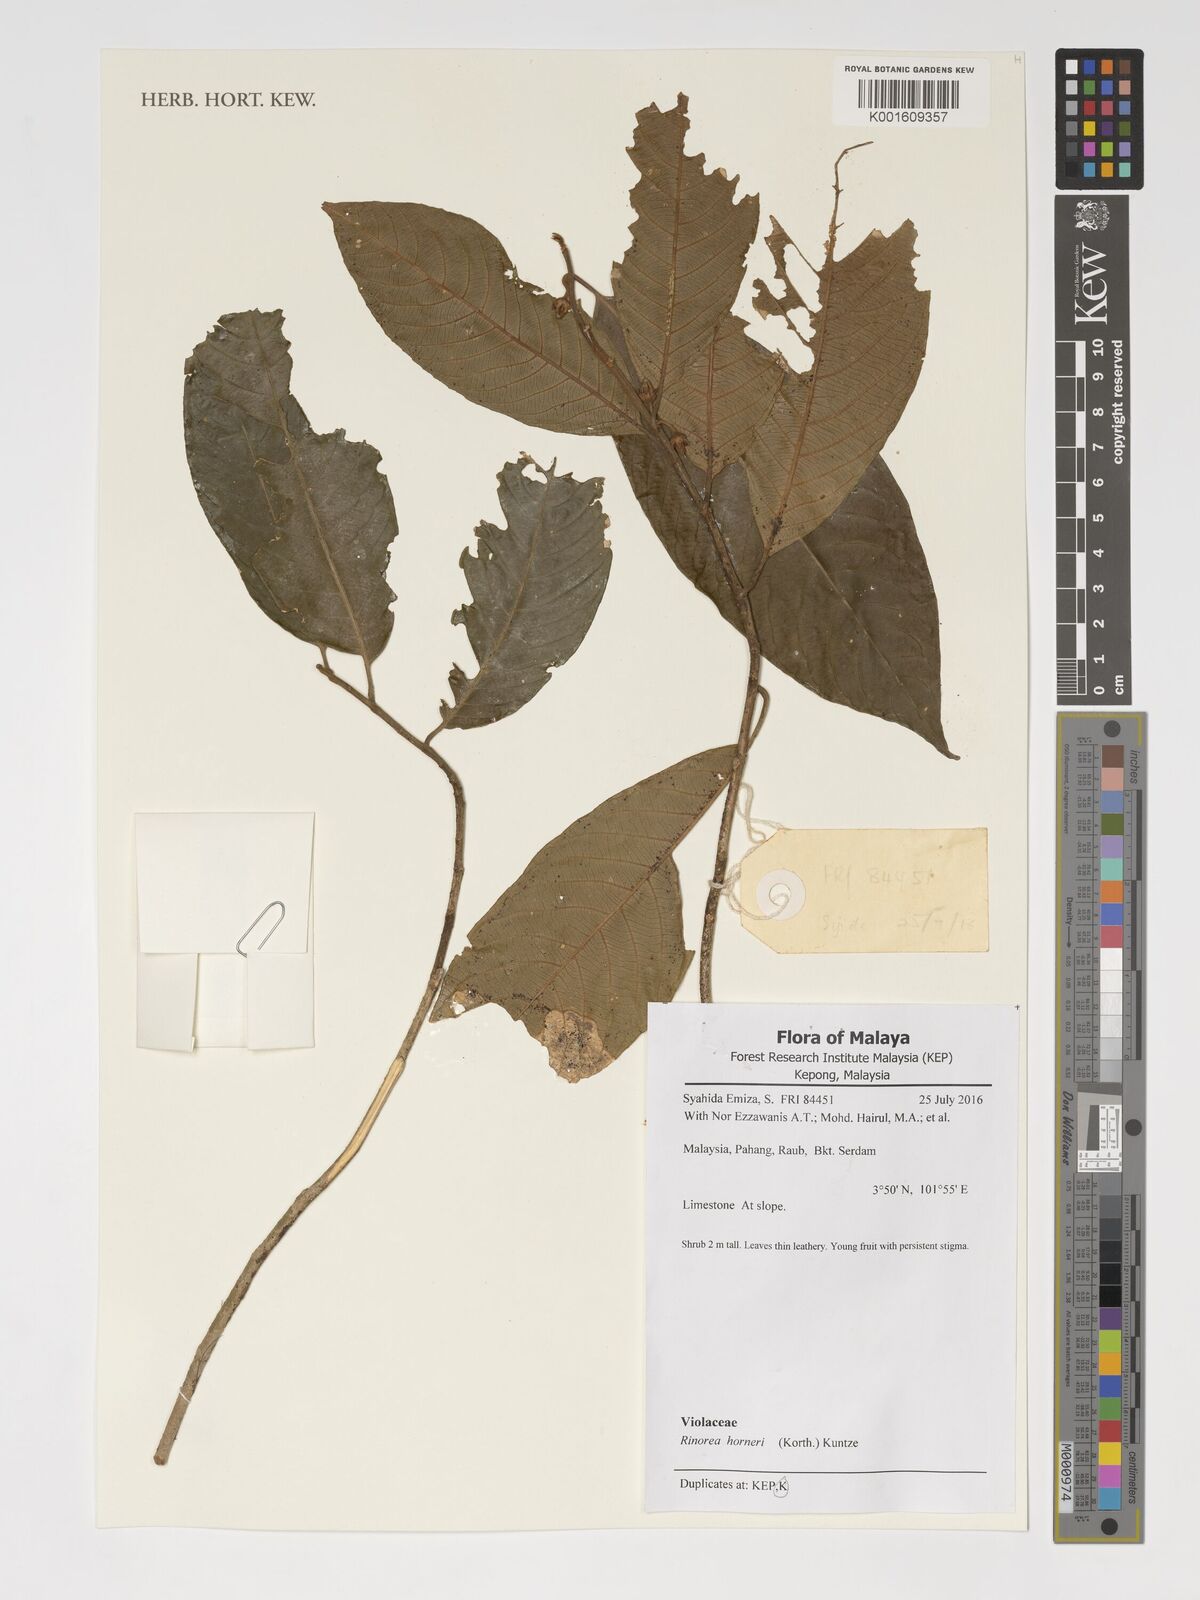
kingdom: Plantae
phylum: Tracheophyta
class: Magnoliopsida
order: Malpighiales
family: Violaceae
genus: Rinorea
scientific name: Rinorea horneri
